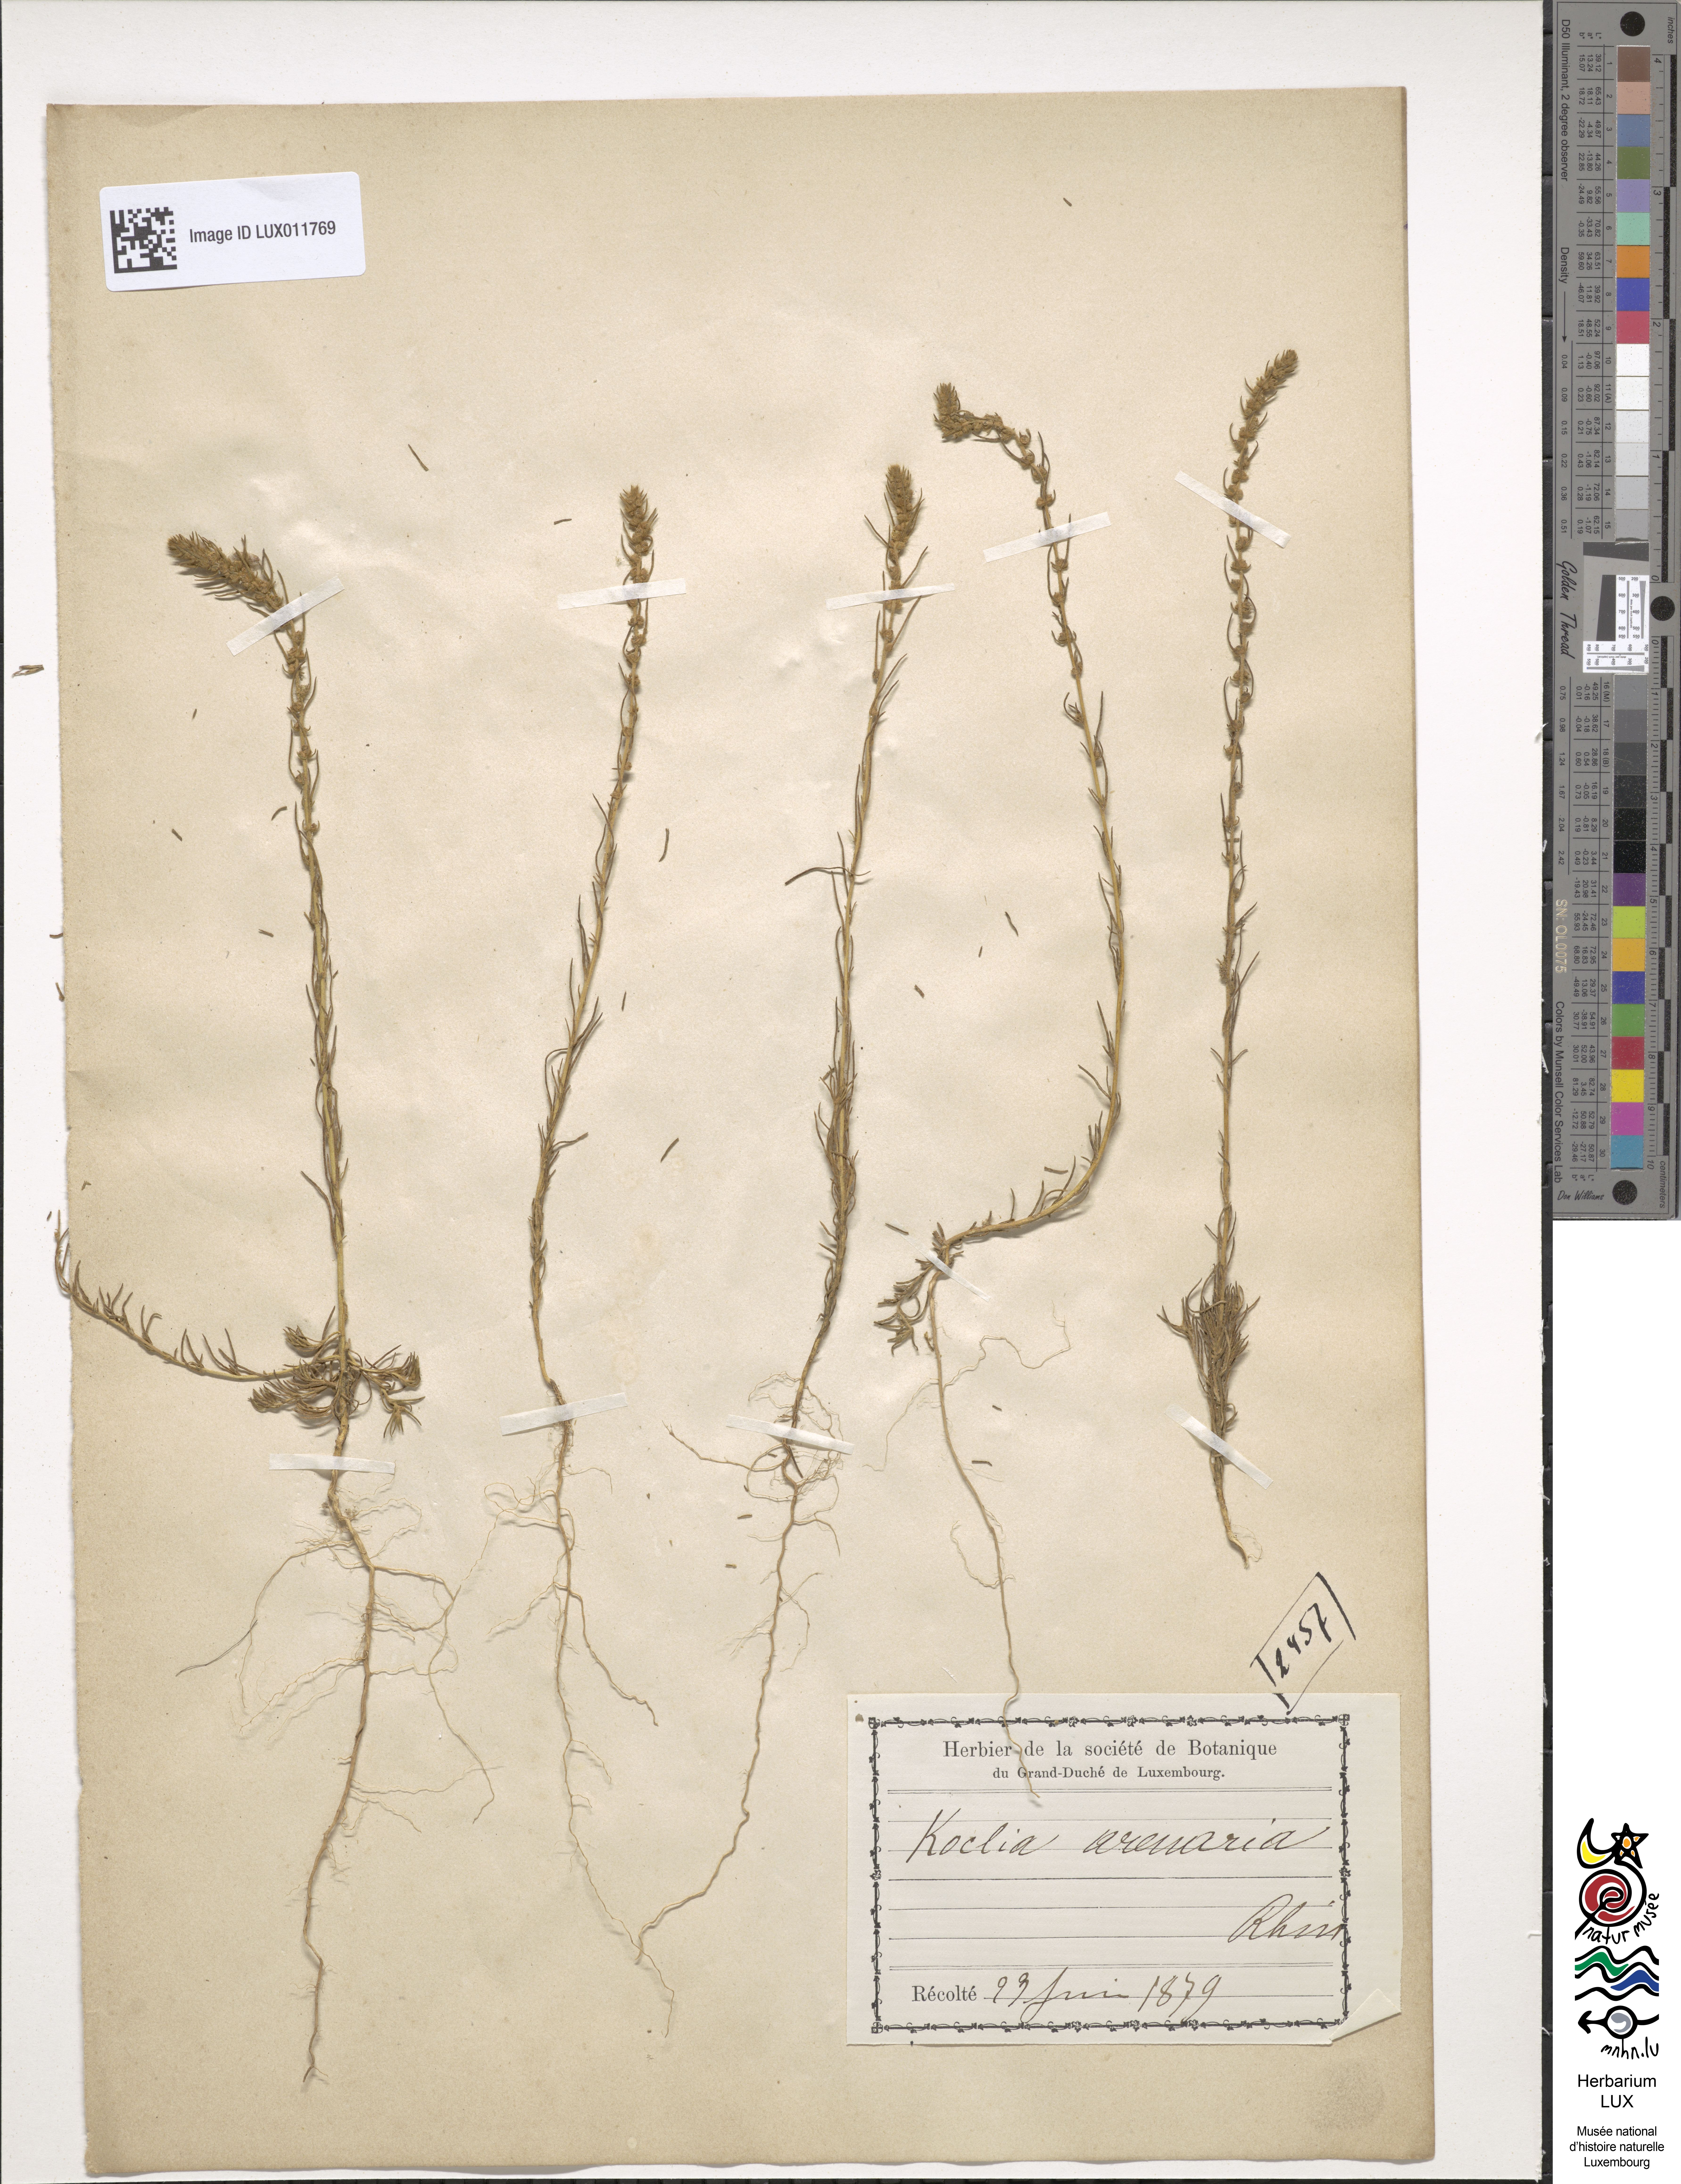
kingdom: Plantae
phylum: Tracheophyta
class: Magnoliopsida
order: Caryophyllales
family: Amaranthaceae
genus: Bassia
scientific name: Bassia laniflora
